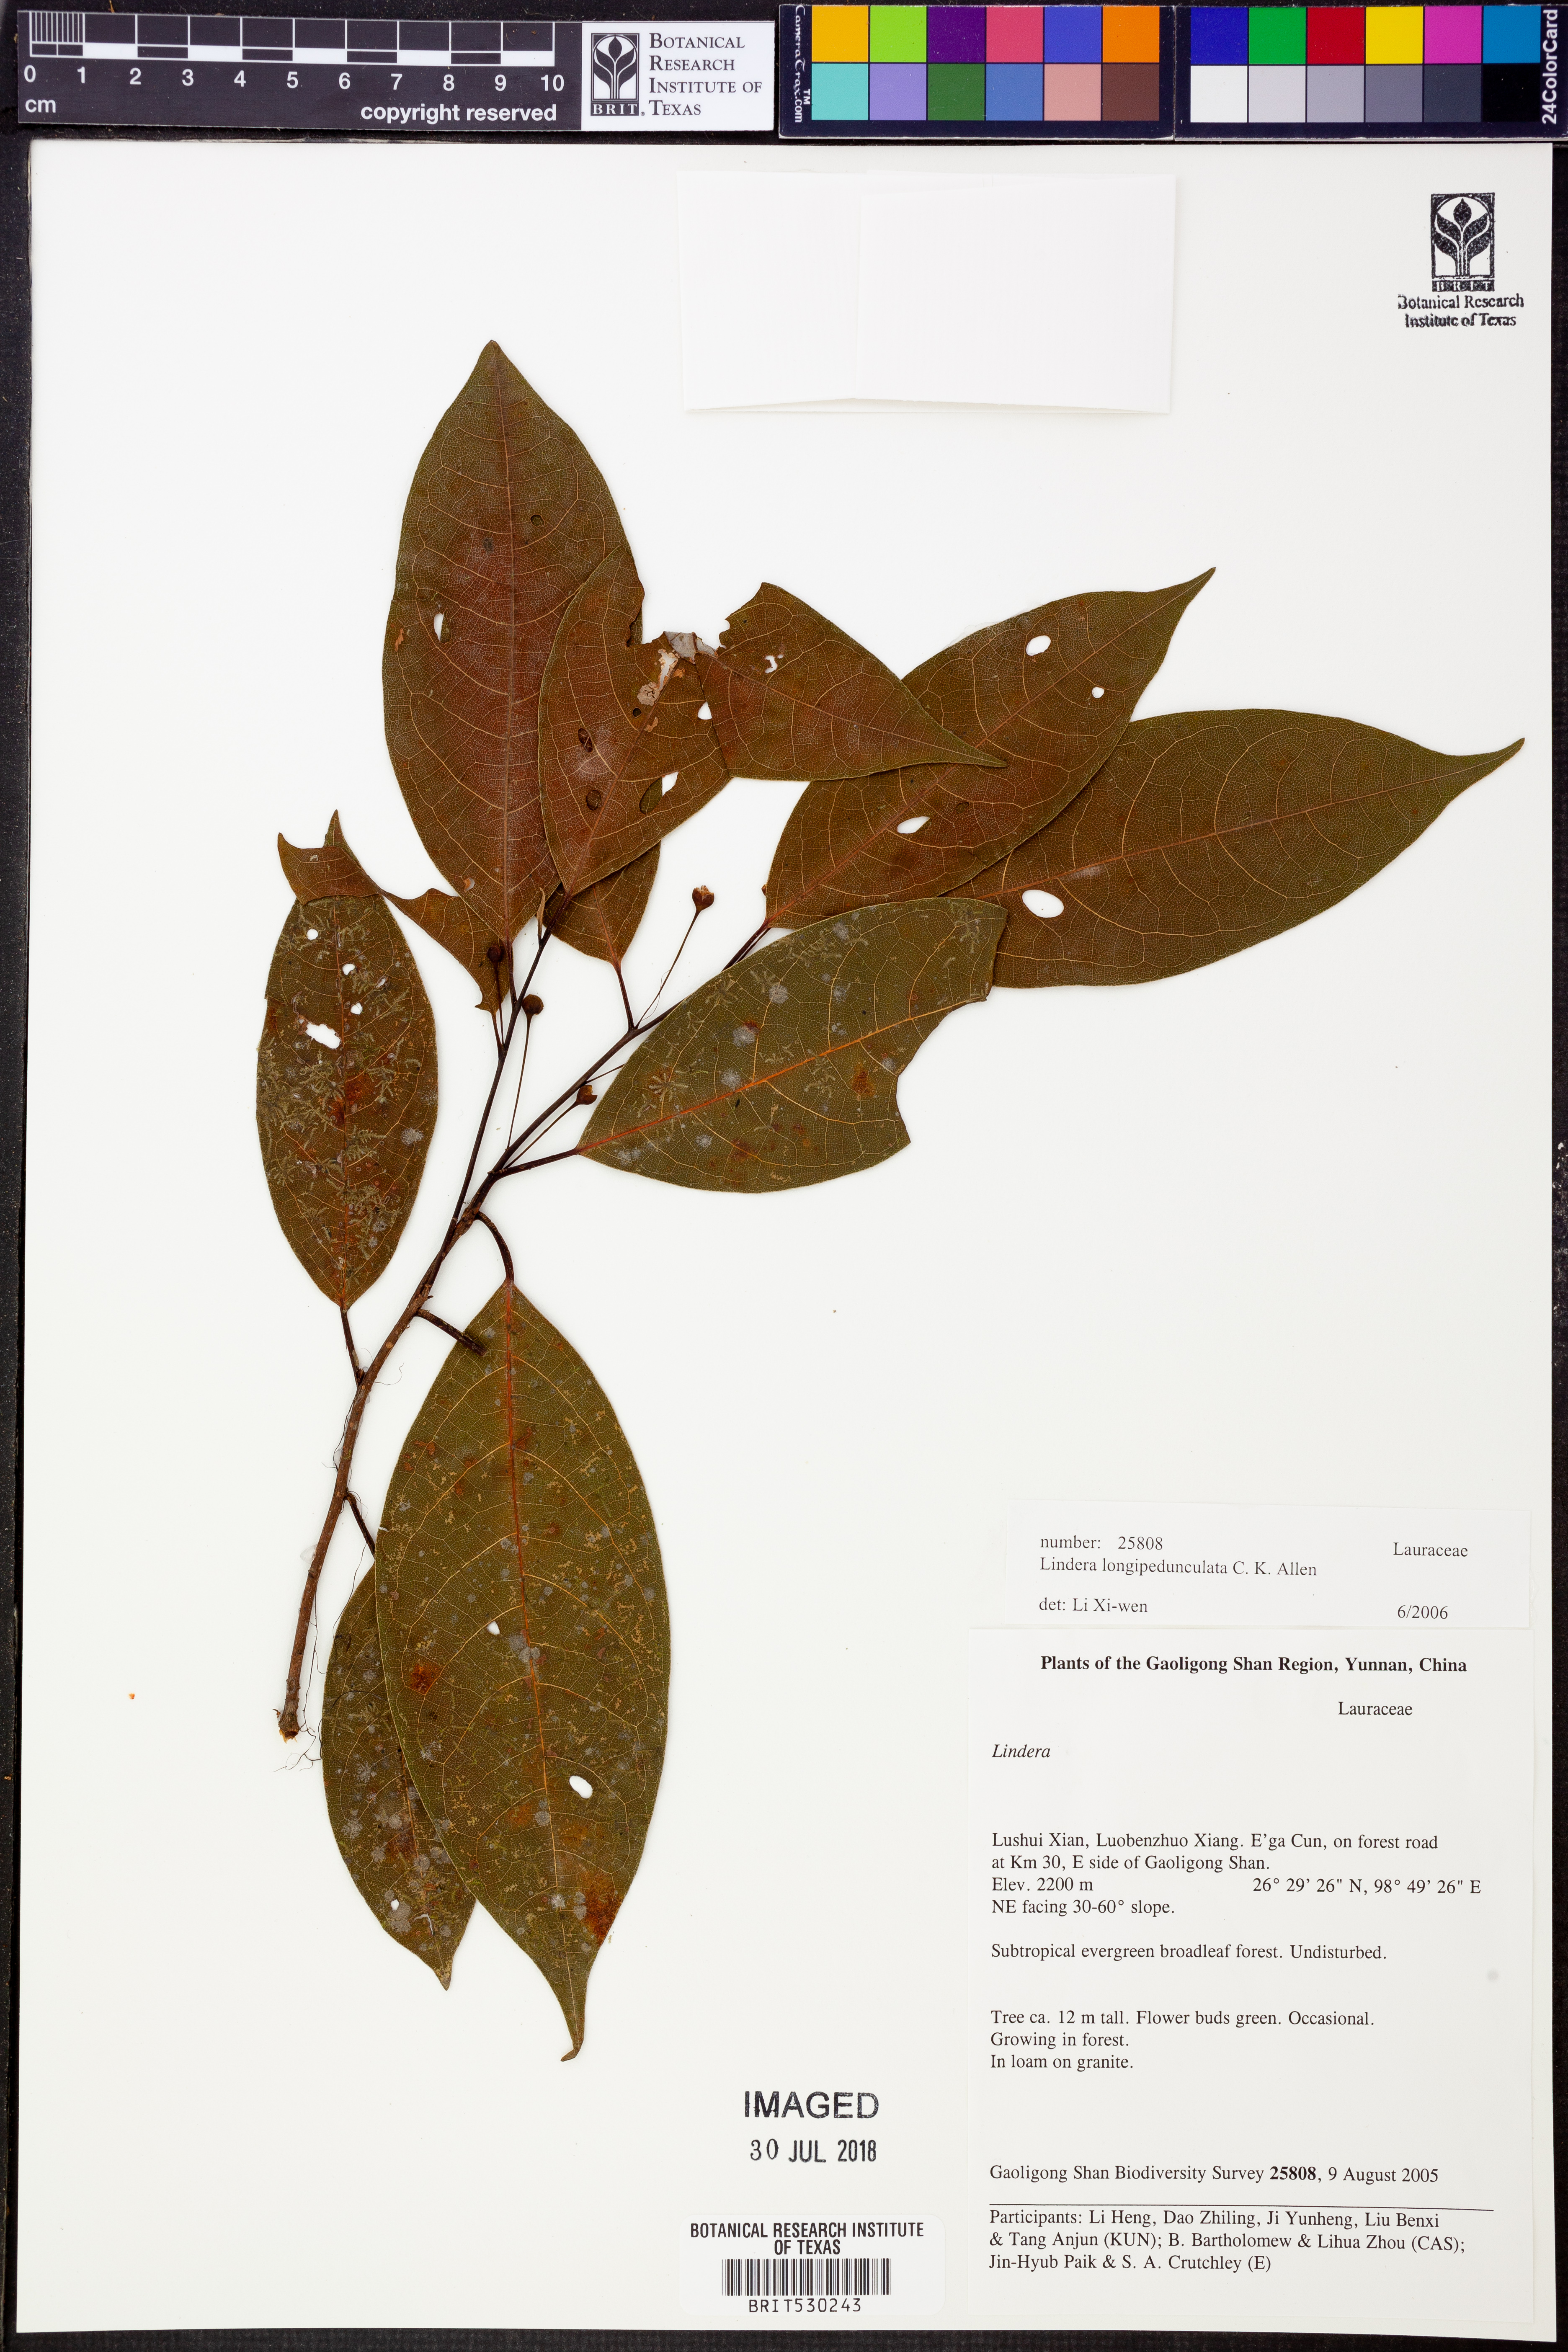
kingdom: Plantae
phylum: Tracheophyta
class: Magnoliopsida
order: Laurales
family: Lauraceae
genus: Lindera
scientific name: Lindera longipedunculata
